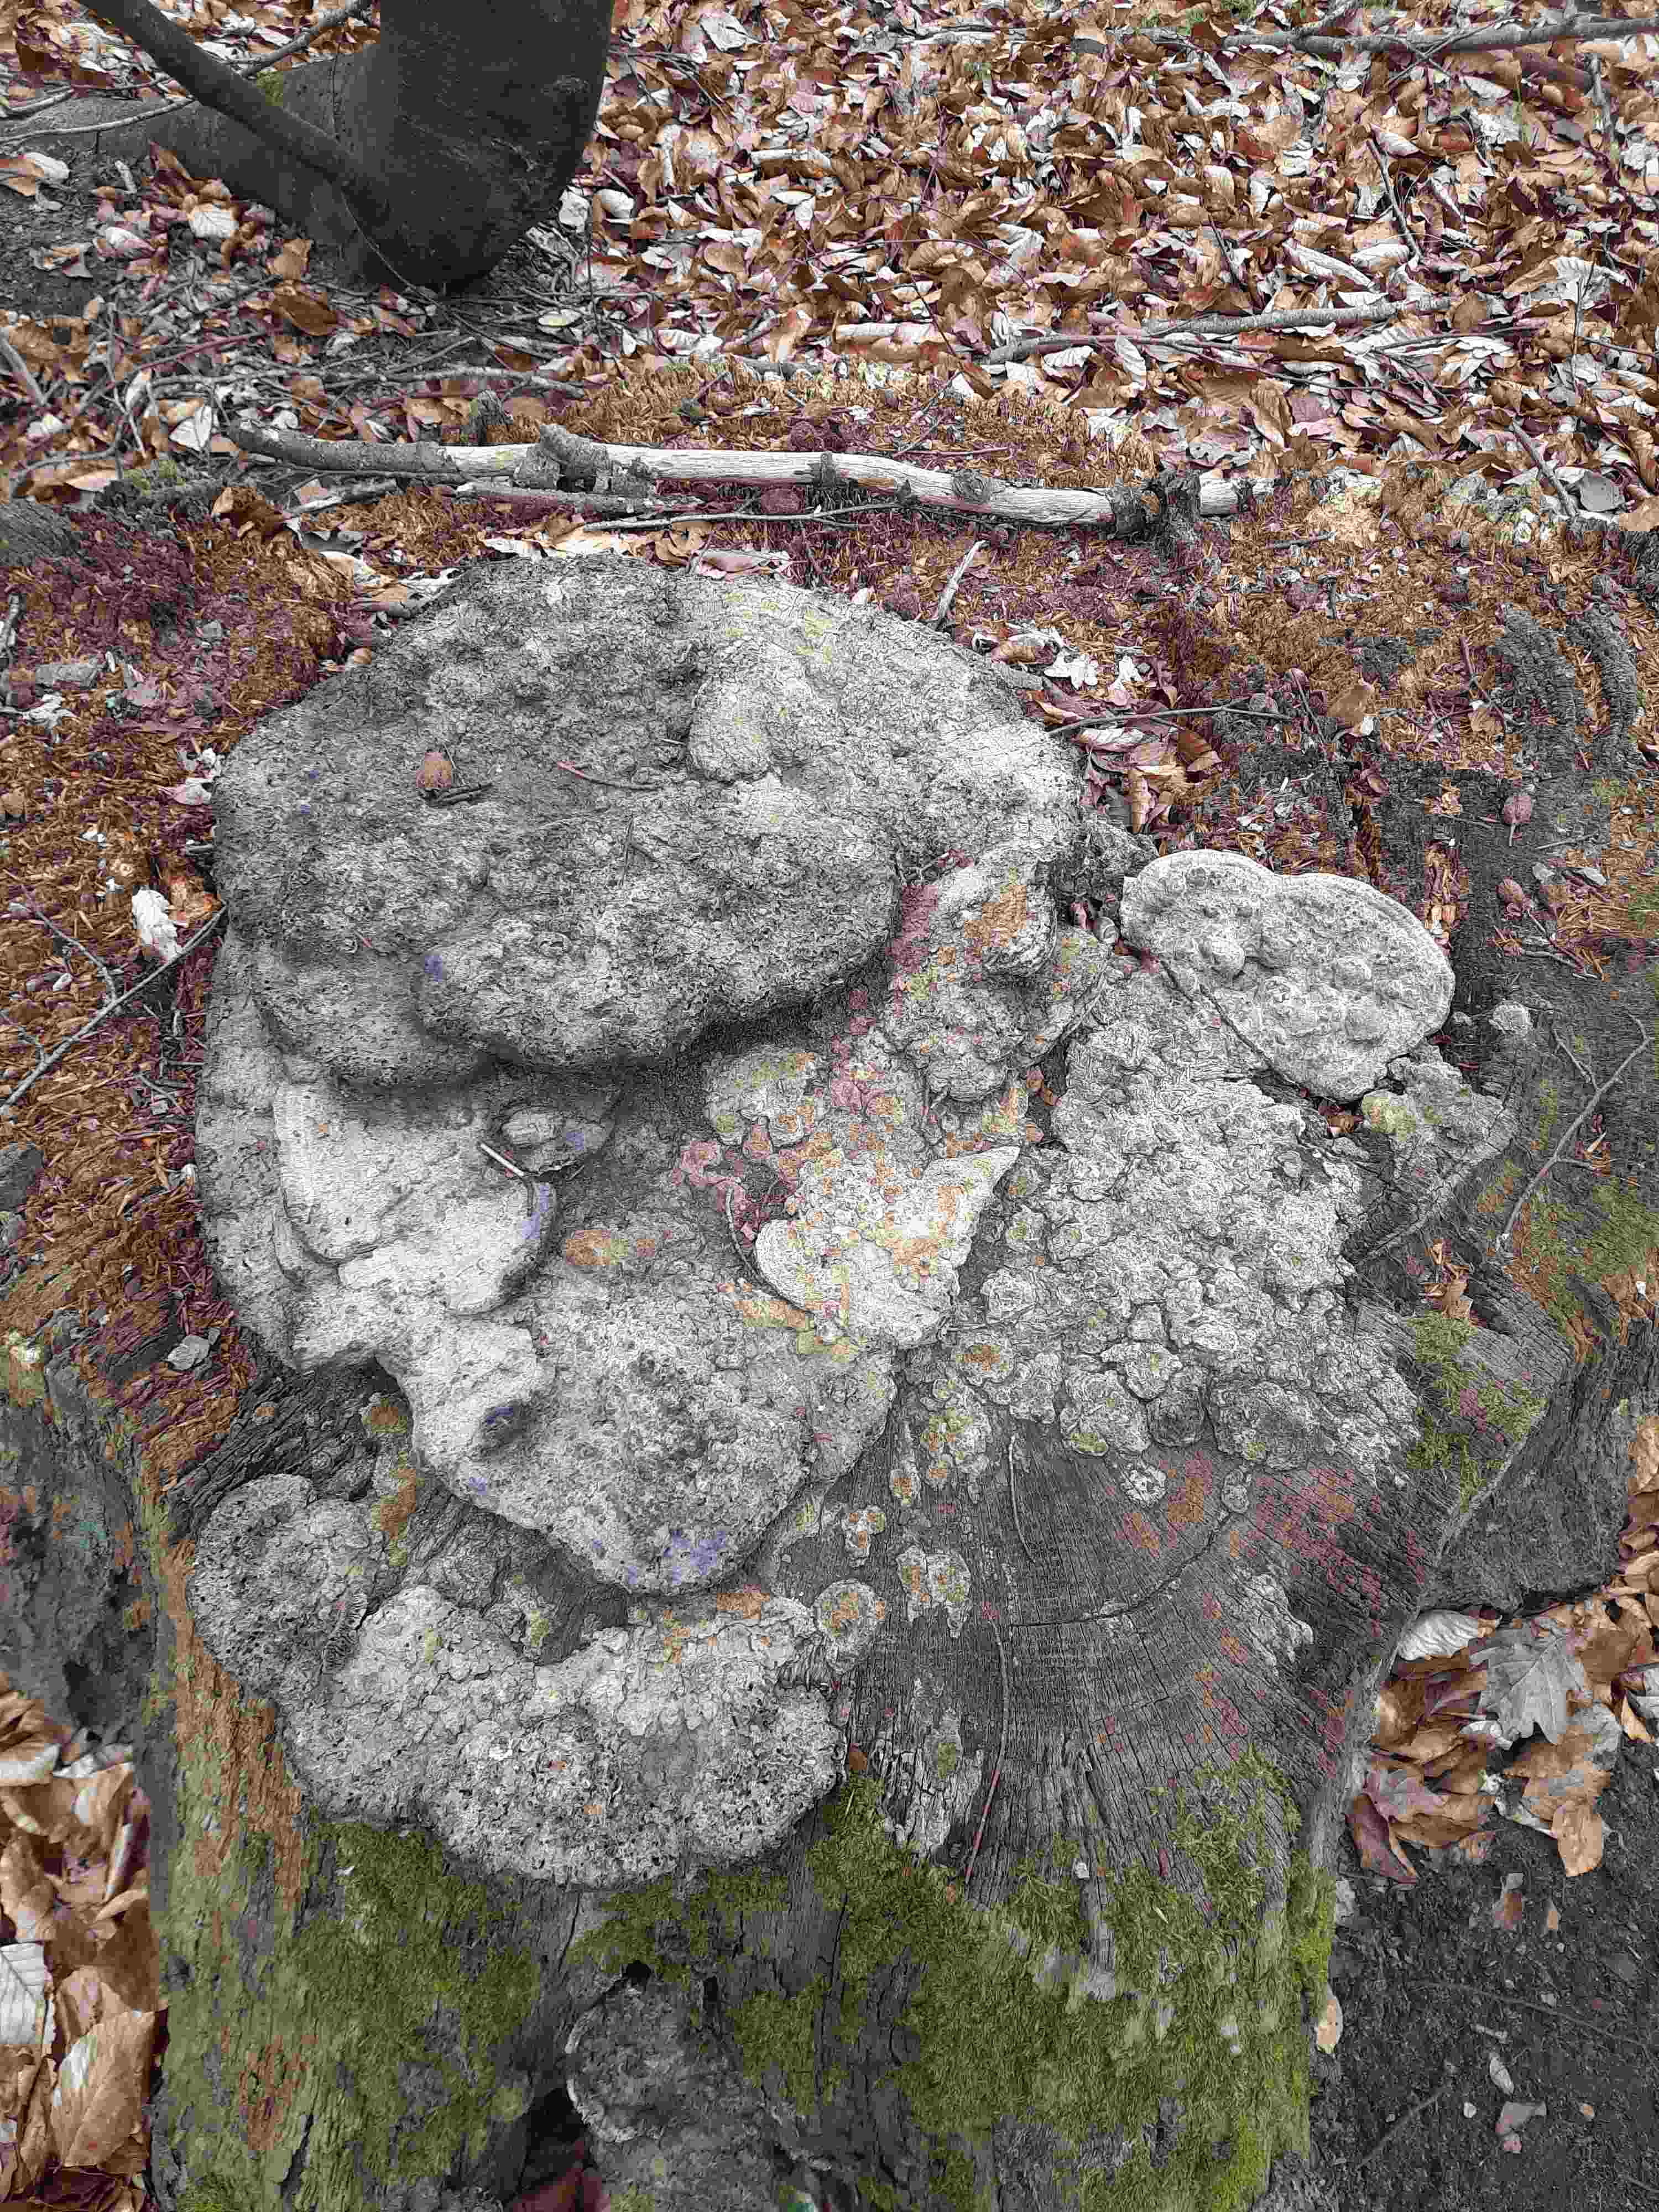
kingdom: Fungi
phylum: Basidiomycota
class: Agaricomycetes
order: Polyporales
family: Fomitopsidaceae
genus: Daedalea
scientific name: Daedalea quercina
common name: ege-labyrintsvamp
